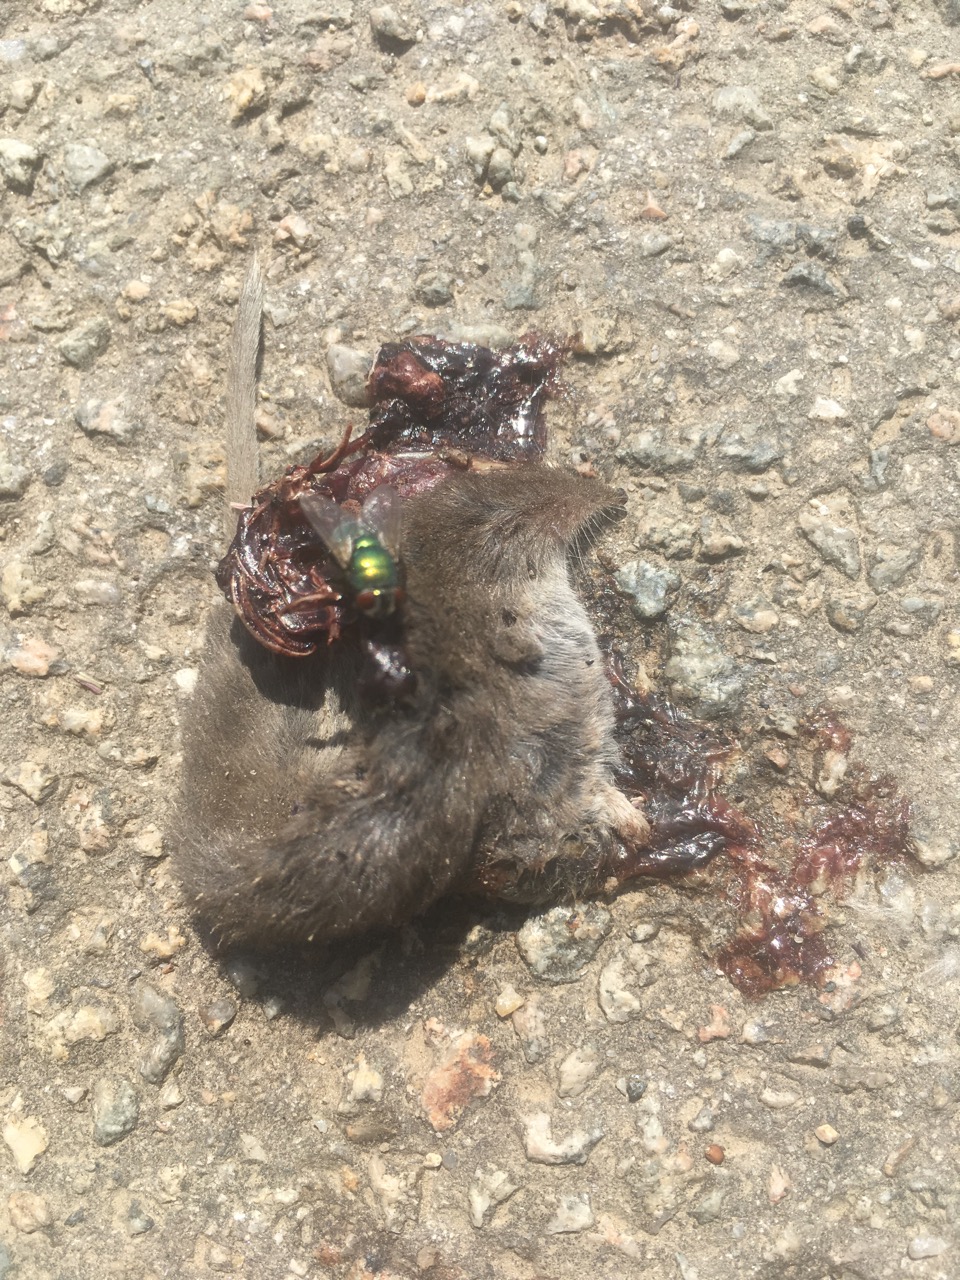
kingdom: Animalia
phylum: Chordata
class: Mammalia
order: Soricomorpha
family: Soricidae
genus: Crocidura
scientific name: Crocidura suaveolens
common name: Lesser white-toothed shrew
